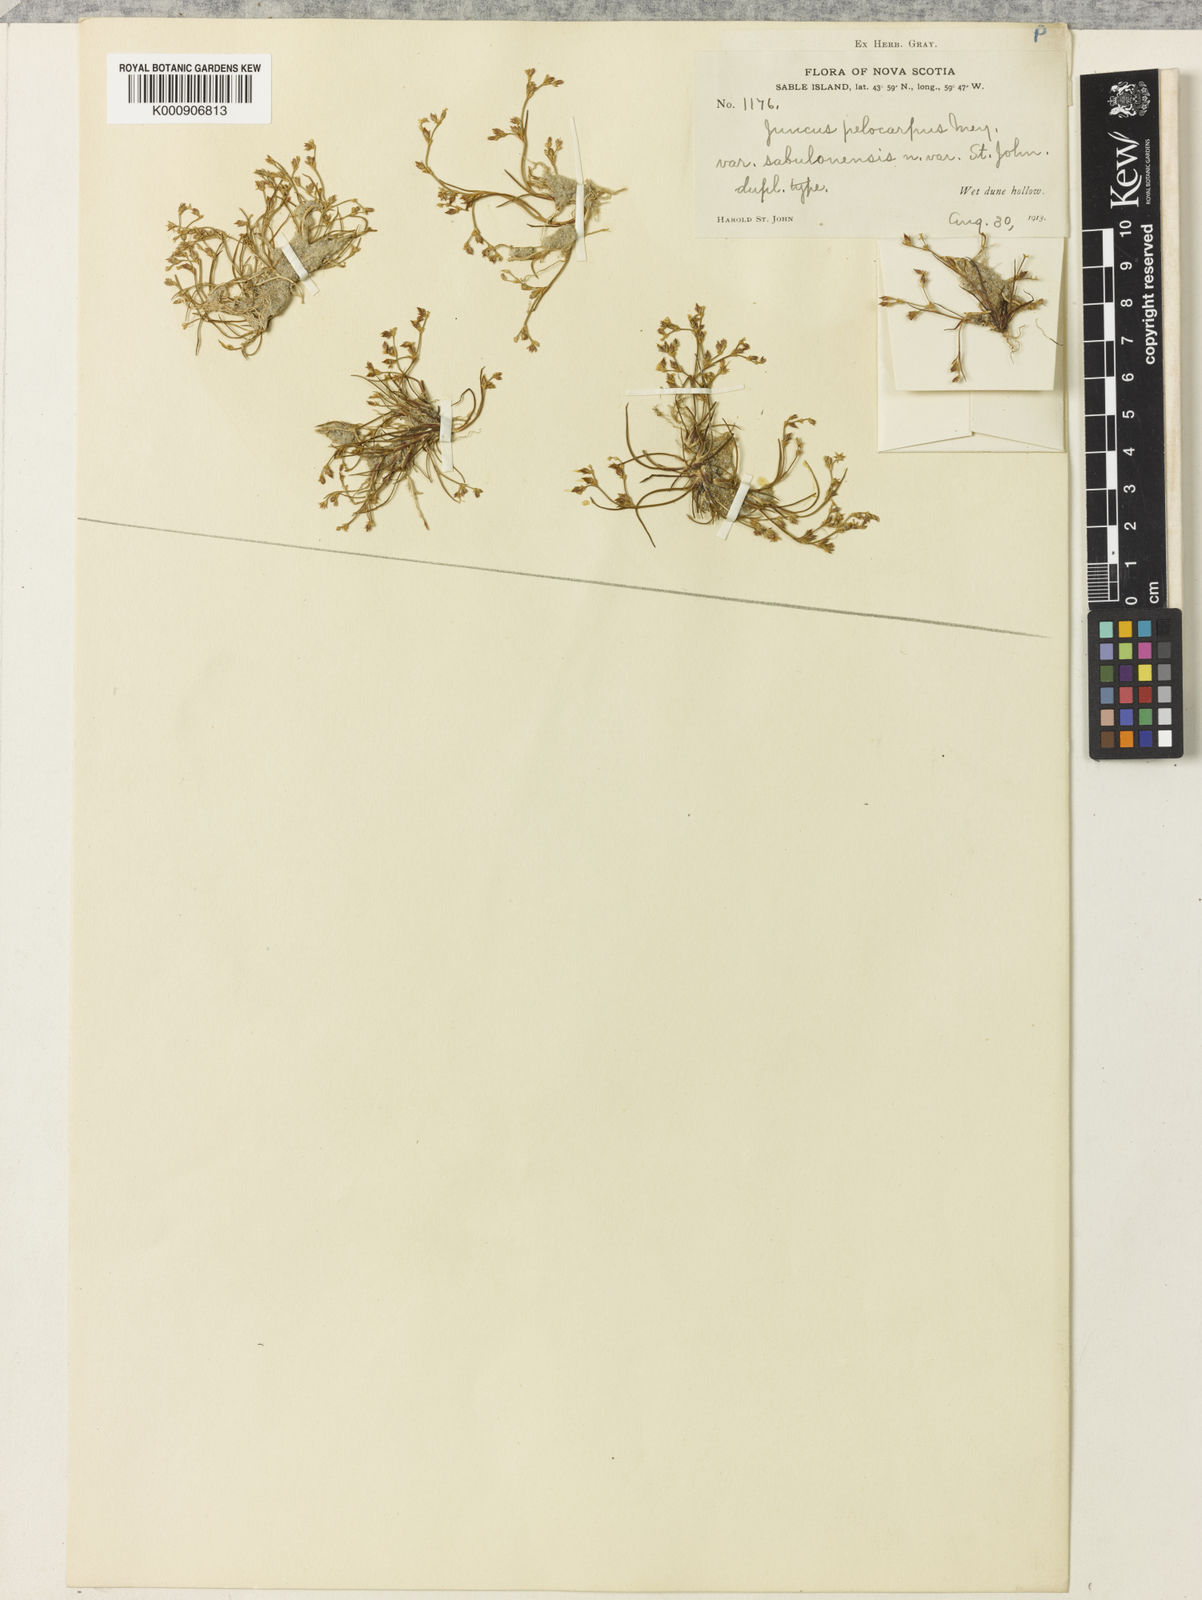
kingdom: Plantae
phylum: Tracheophyta
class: Liliopsida
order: Poales
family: Juncaceae
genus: Juncus
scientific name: Juncus pelocarpus
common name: Brown-fruited rush
